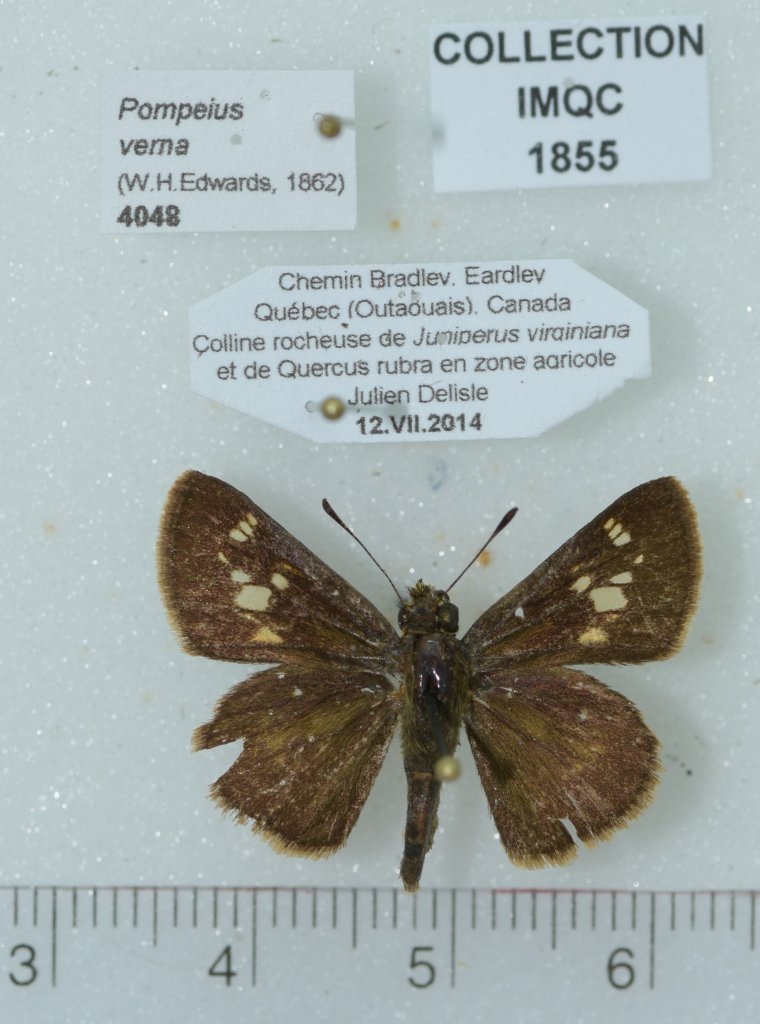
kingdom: Animalia
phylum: Arthropoda
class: Insecta
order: Lepidoptera
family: Hesperiidae
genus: Vernia
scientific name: Vernia verna
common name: Little Glassywing
